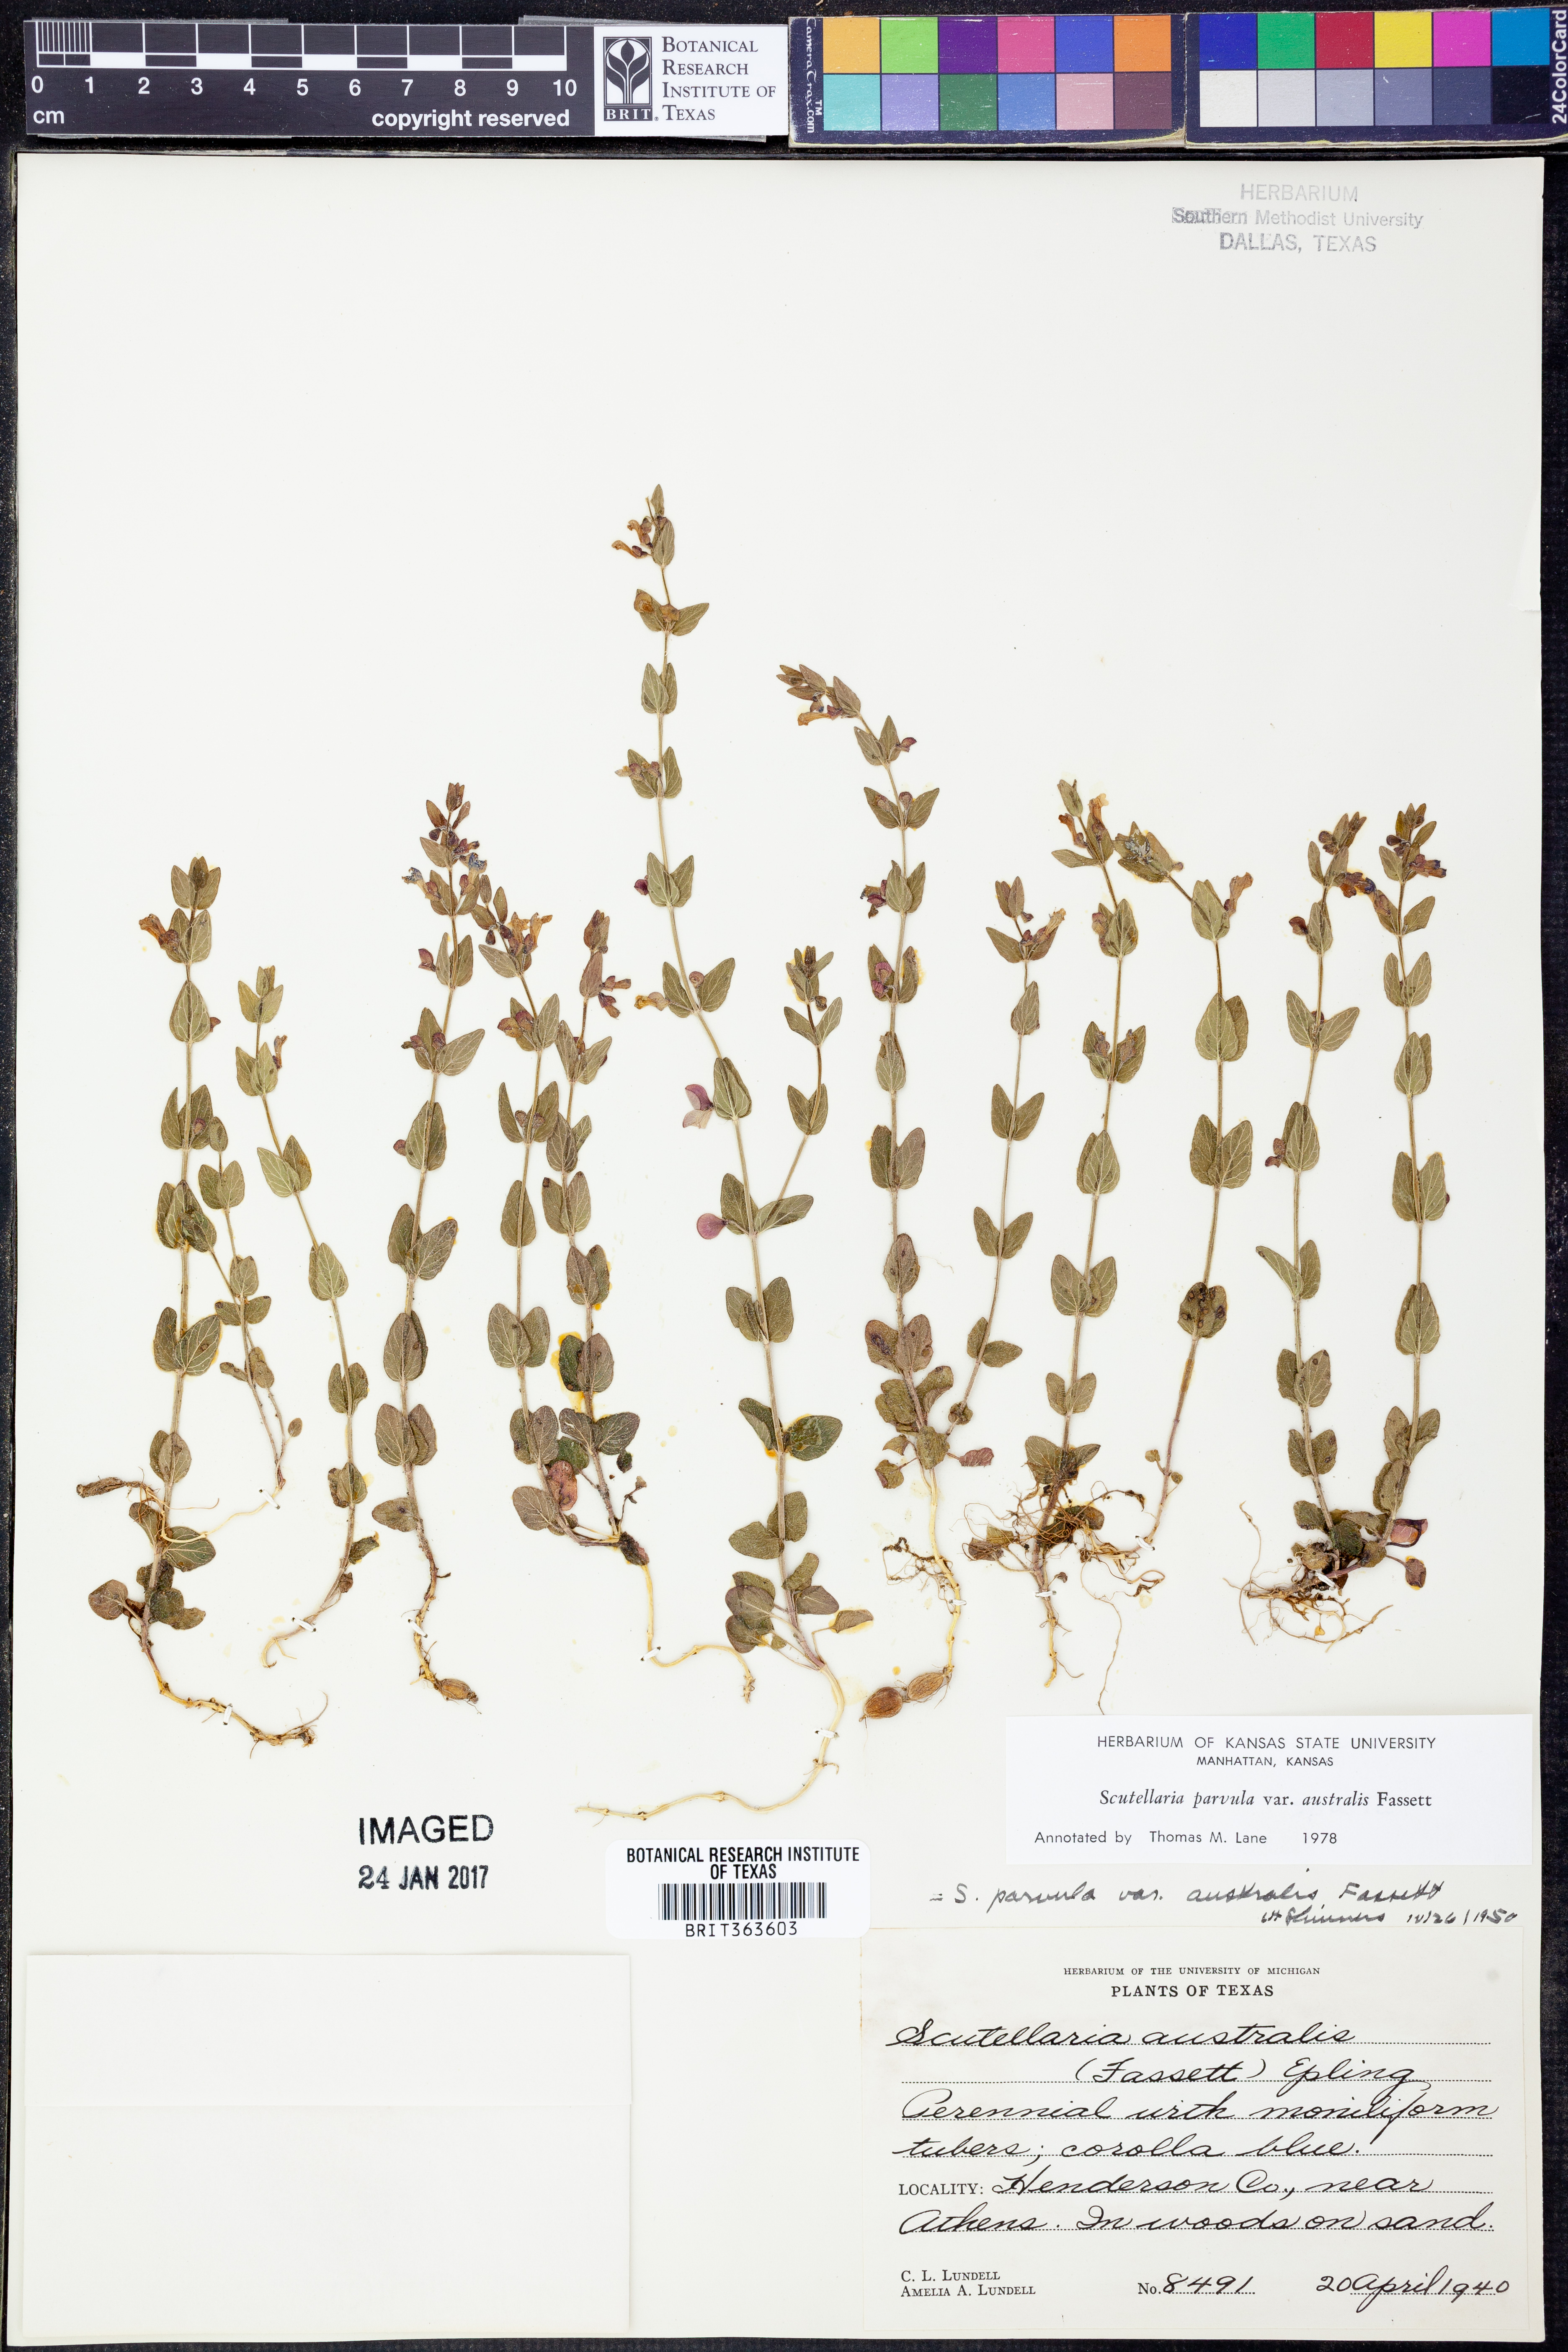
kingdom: Plantae
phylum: Tracheophyta
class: Magnoliopsida
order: Lamiales
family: Lamiaceae
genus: Scutellaria
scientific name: Scutellaria parvula
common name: Little scullcap
